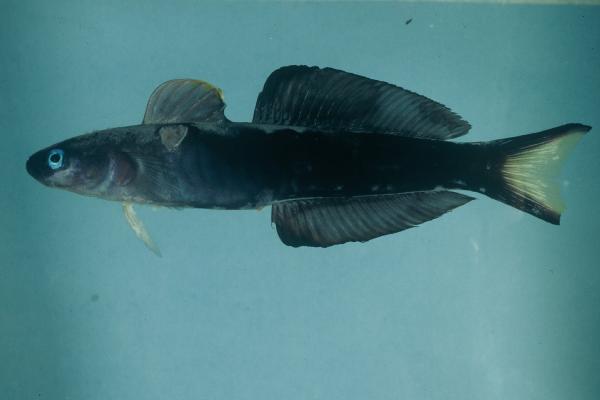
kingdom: Animalia
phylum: Chordata
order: Perciformes
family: Microdesmidae
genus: Ptereleotris
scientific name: Ptereleotris evides
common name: Blackfin dartfish
